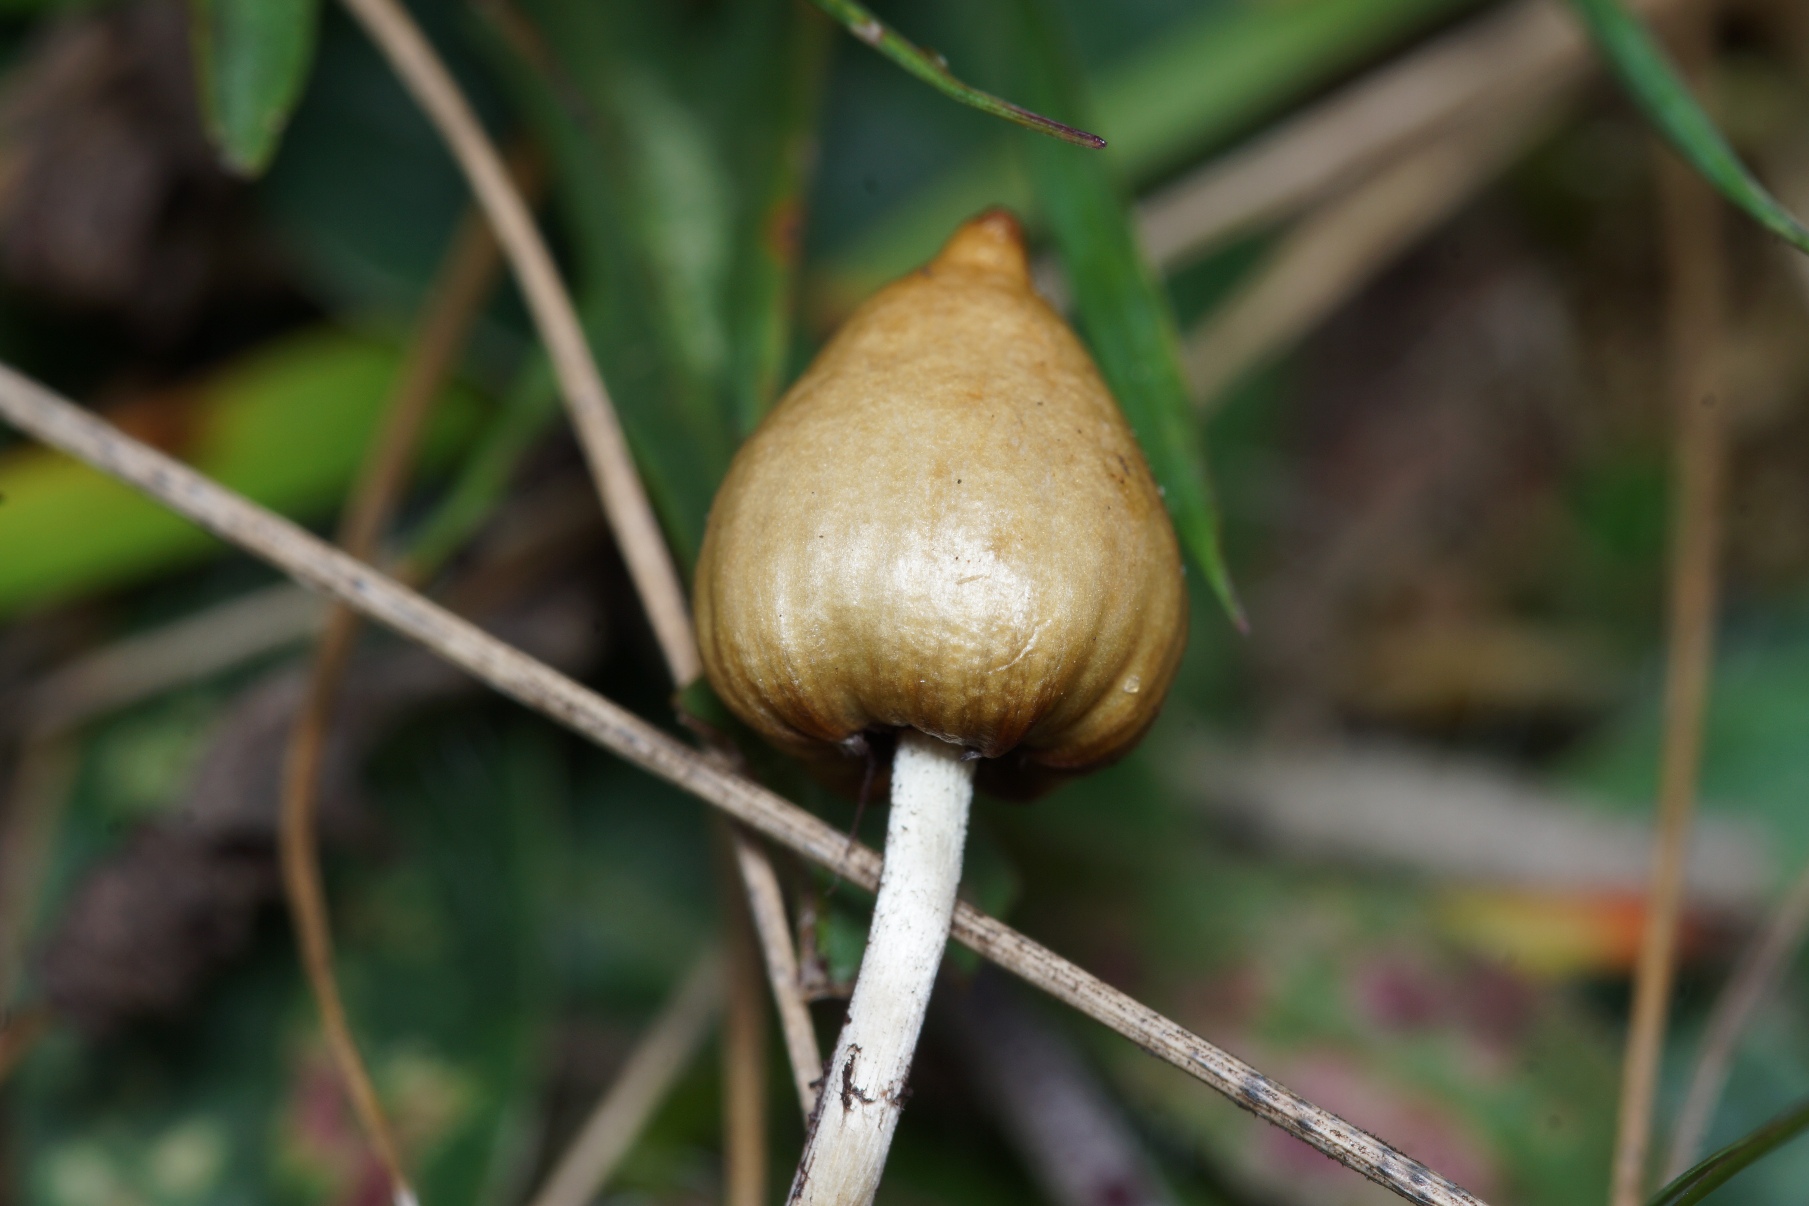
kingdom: Fungi
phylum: Basidiomycota
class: Agaricomycetes
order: Agaricales
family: Hymenogastraceae
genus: Psilocybe
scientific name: Psilocybe semilanceata
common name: Spids nøgenhat
